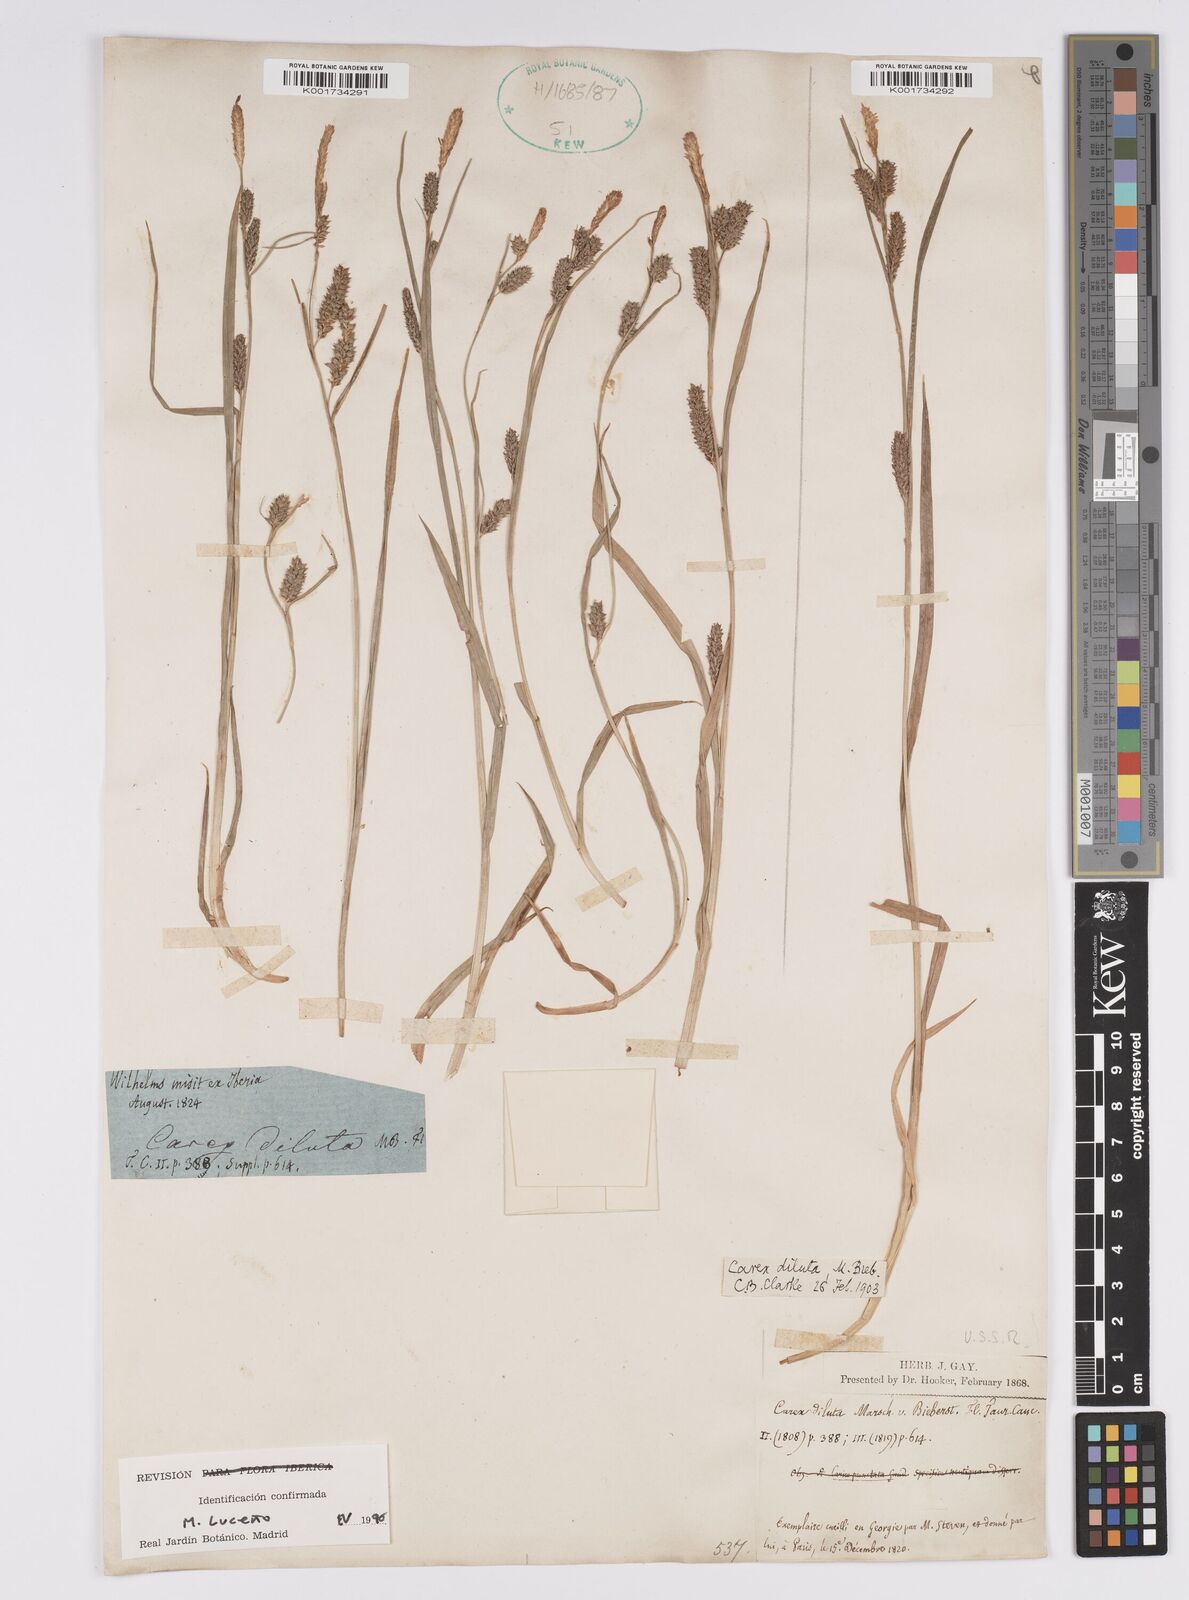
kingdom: Plantae
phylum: Tracheophyta
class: Liliopsida
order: Poales
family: Cyperaceae
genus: Carex
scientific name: Carex diluta
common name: Sedge
